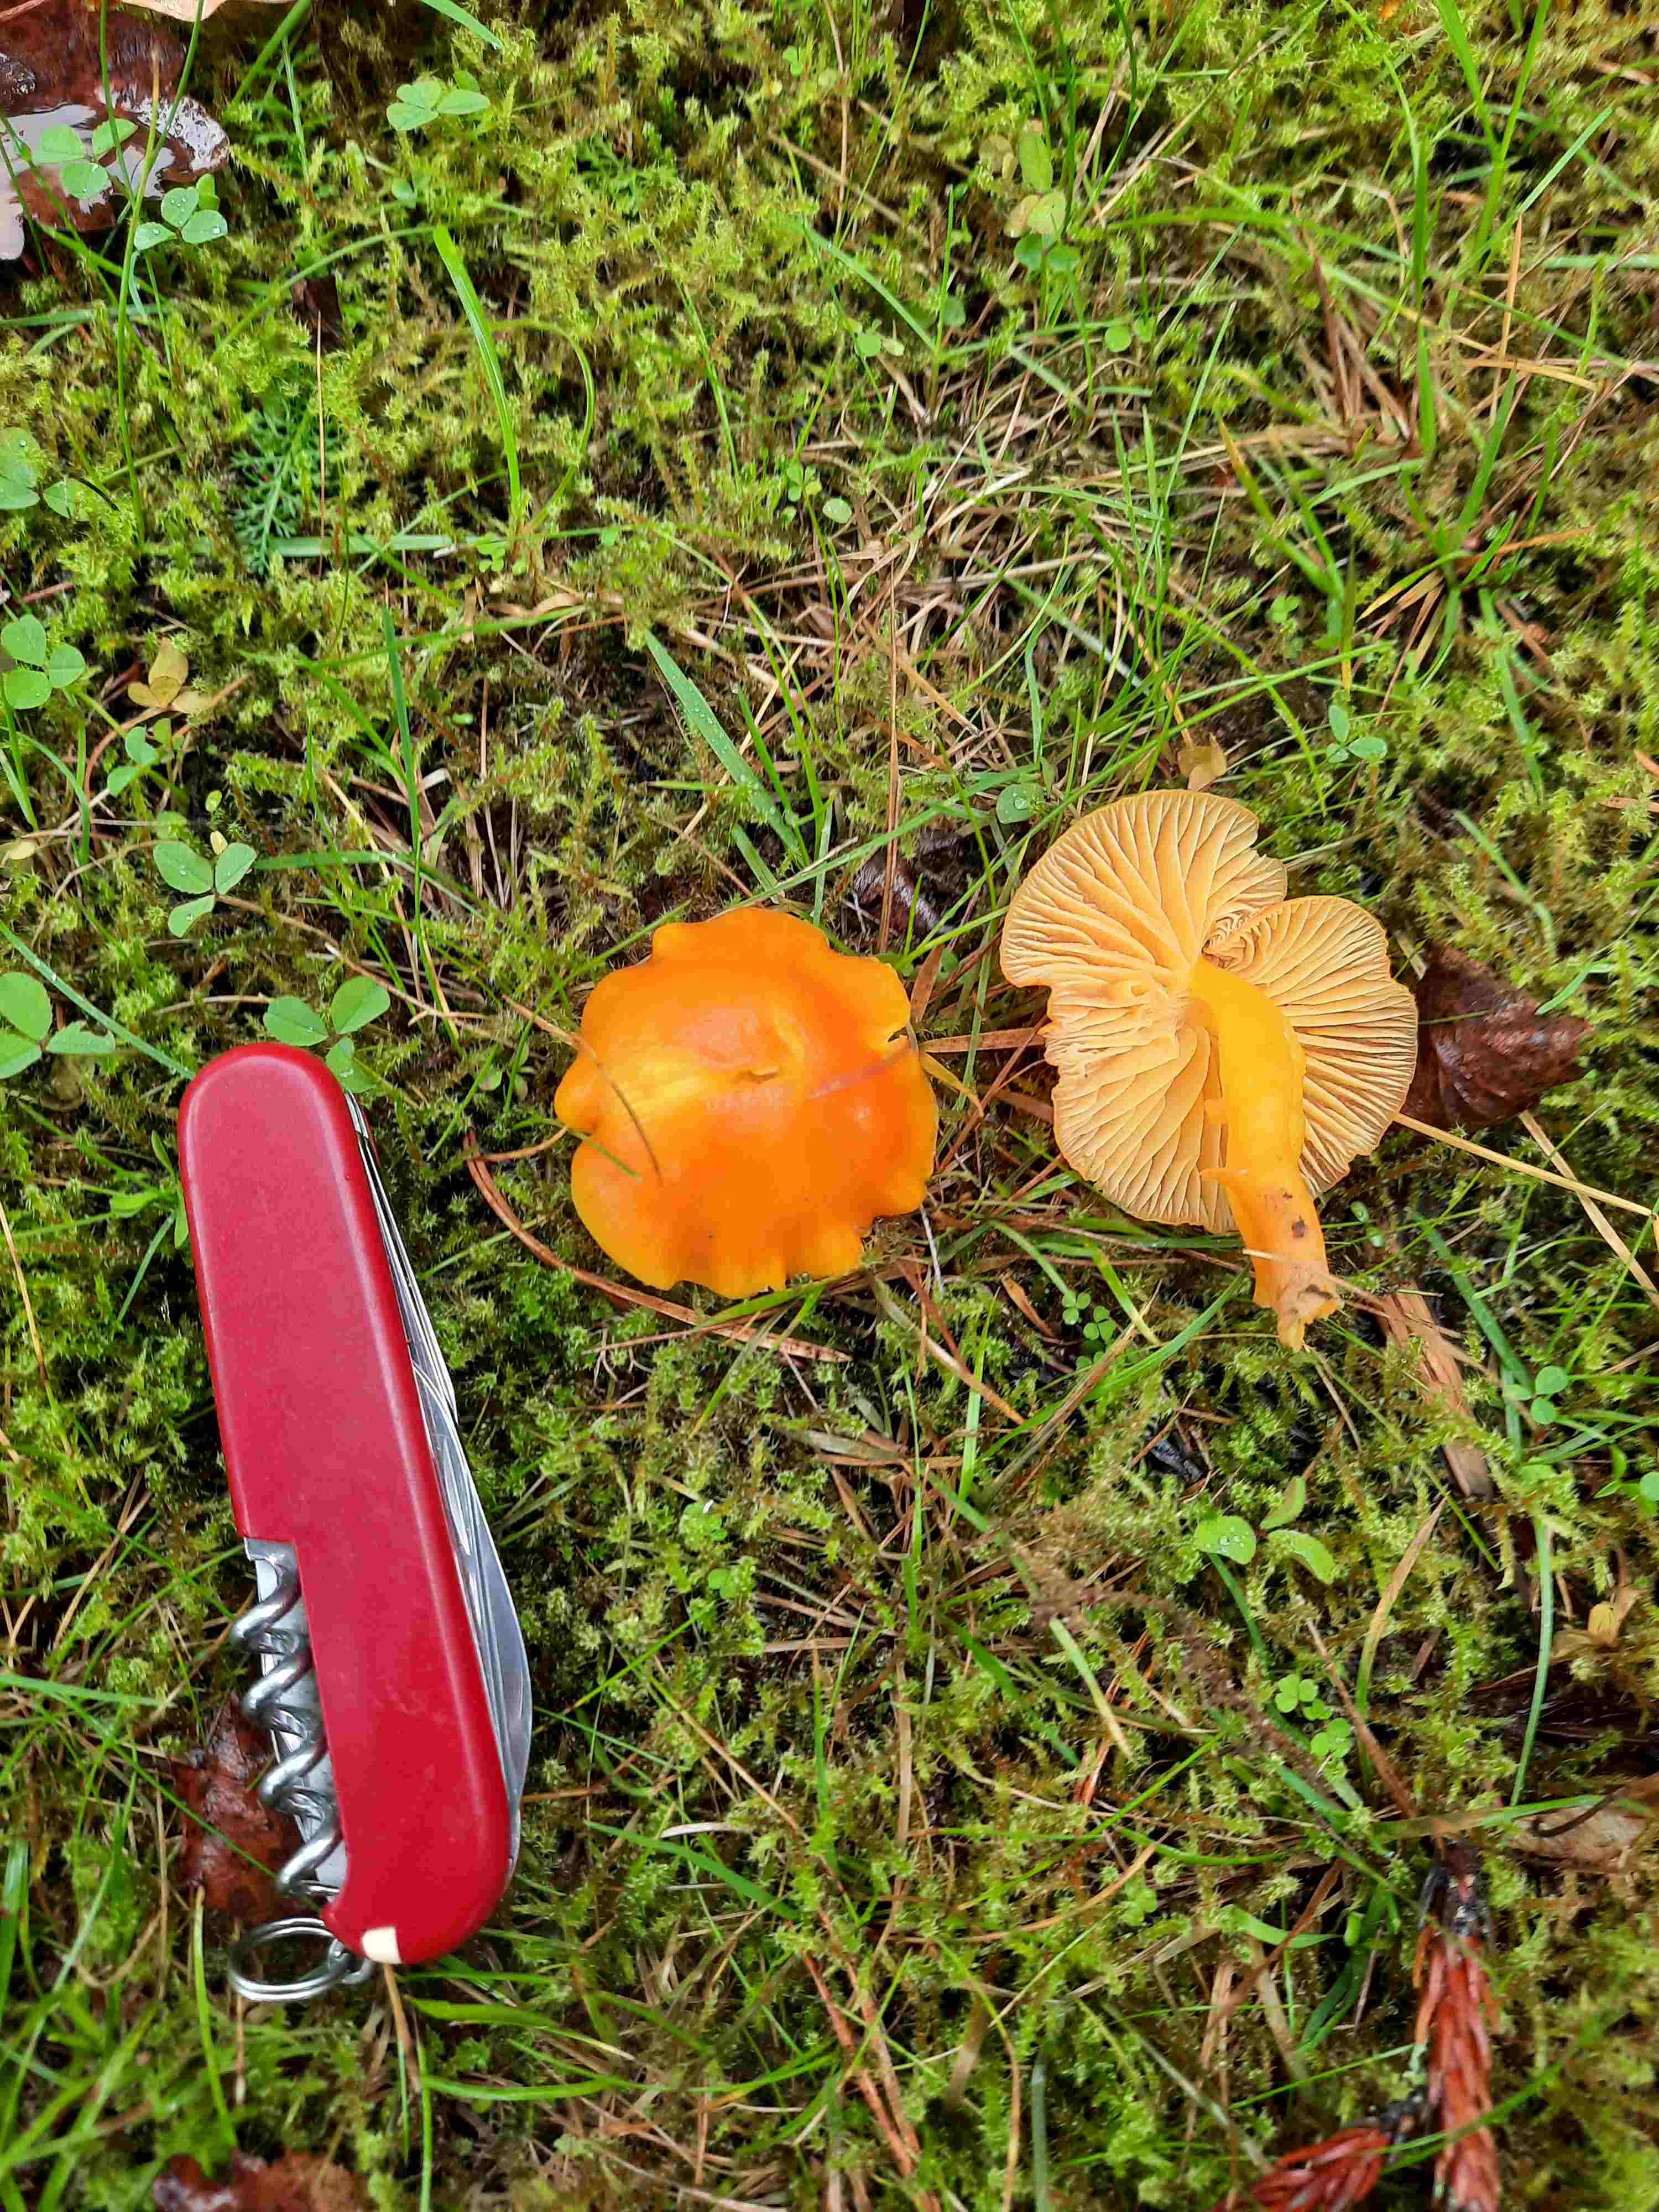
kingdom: Fungi
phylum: Basidiomycota
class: Agaricomycetes
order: Agaricales
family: Hygrophoraceae
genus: Hygrocybe
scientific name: Hygrocybe miniata
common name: mønje-vokshat
